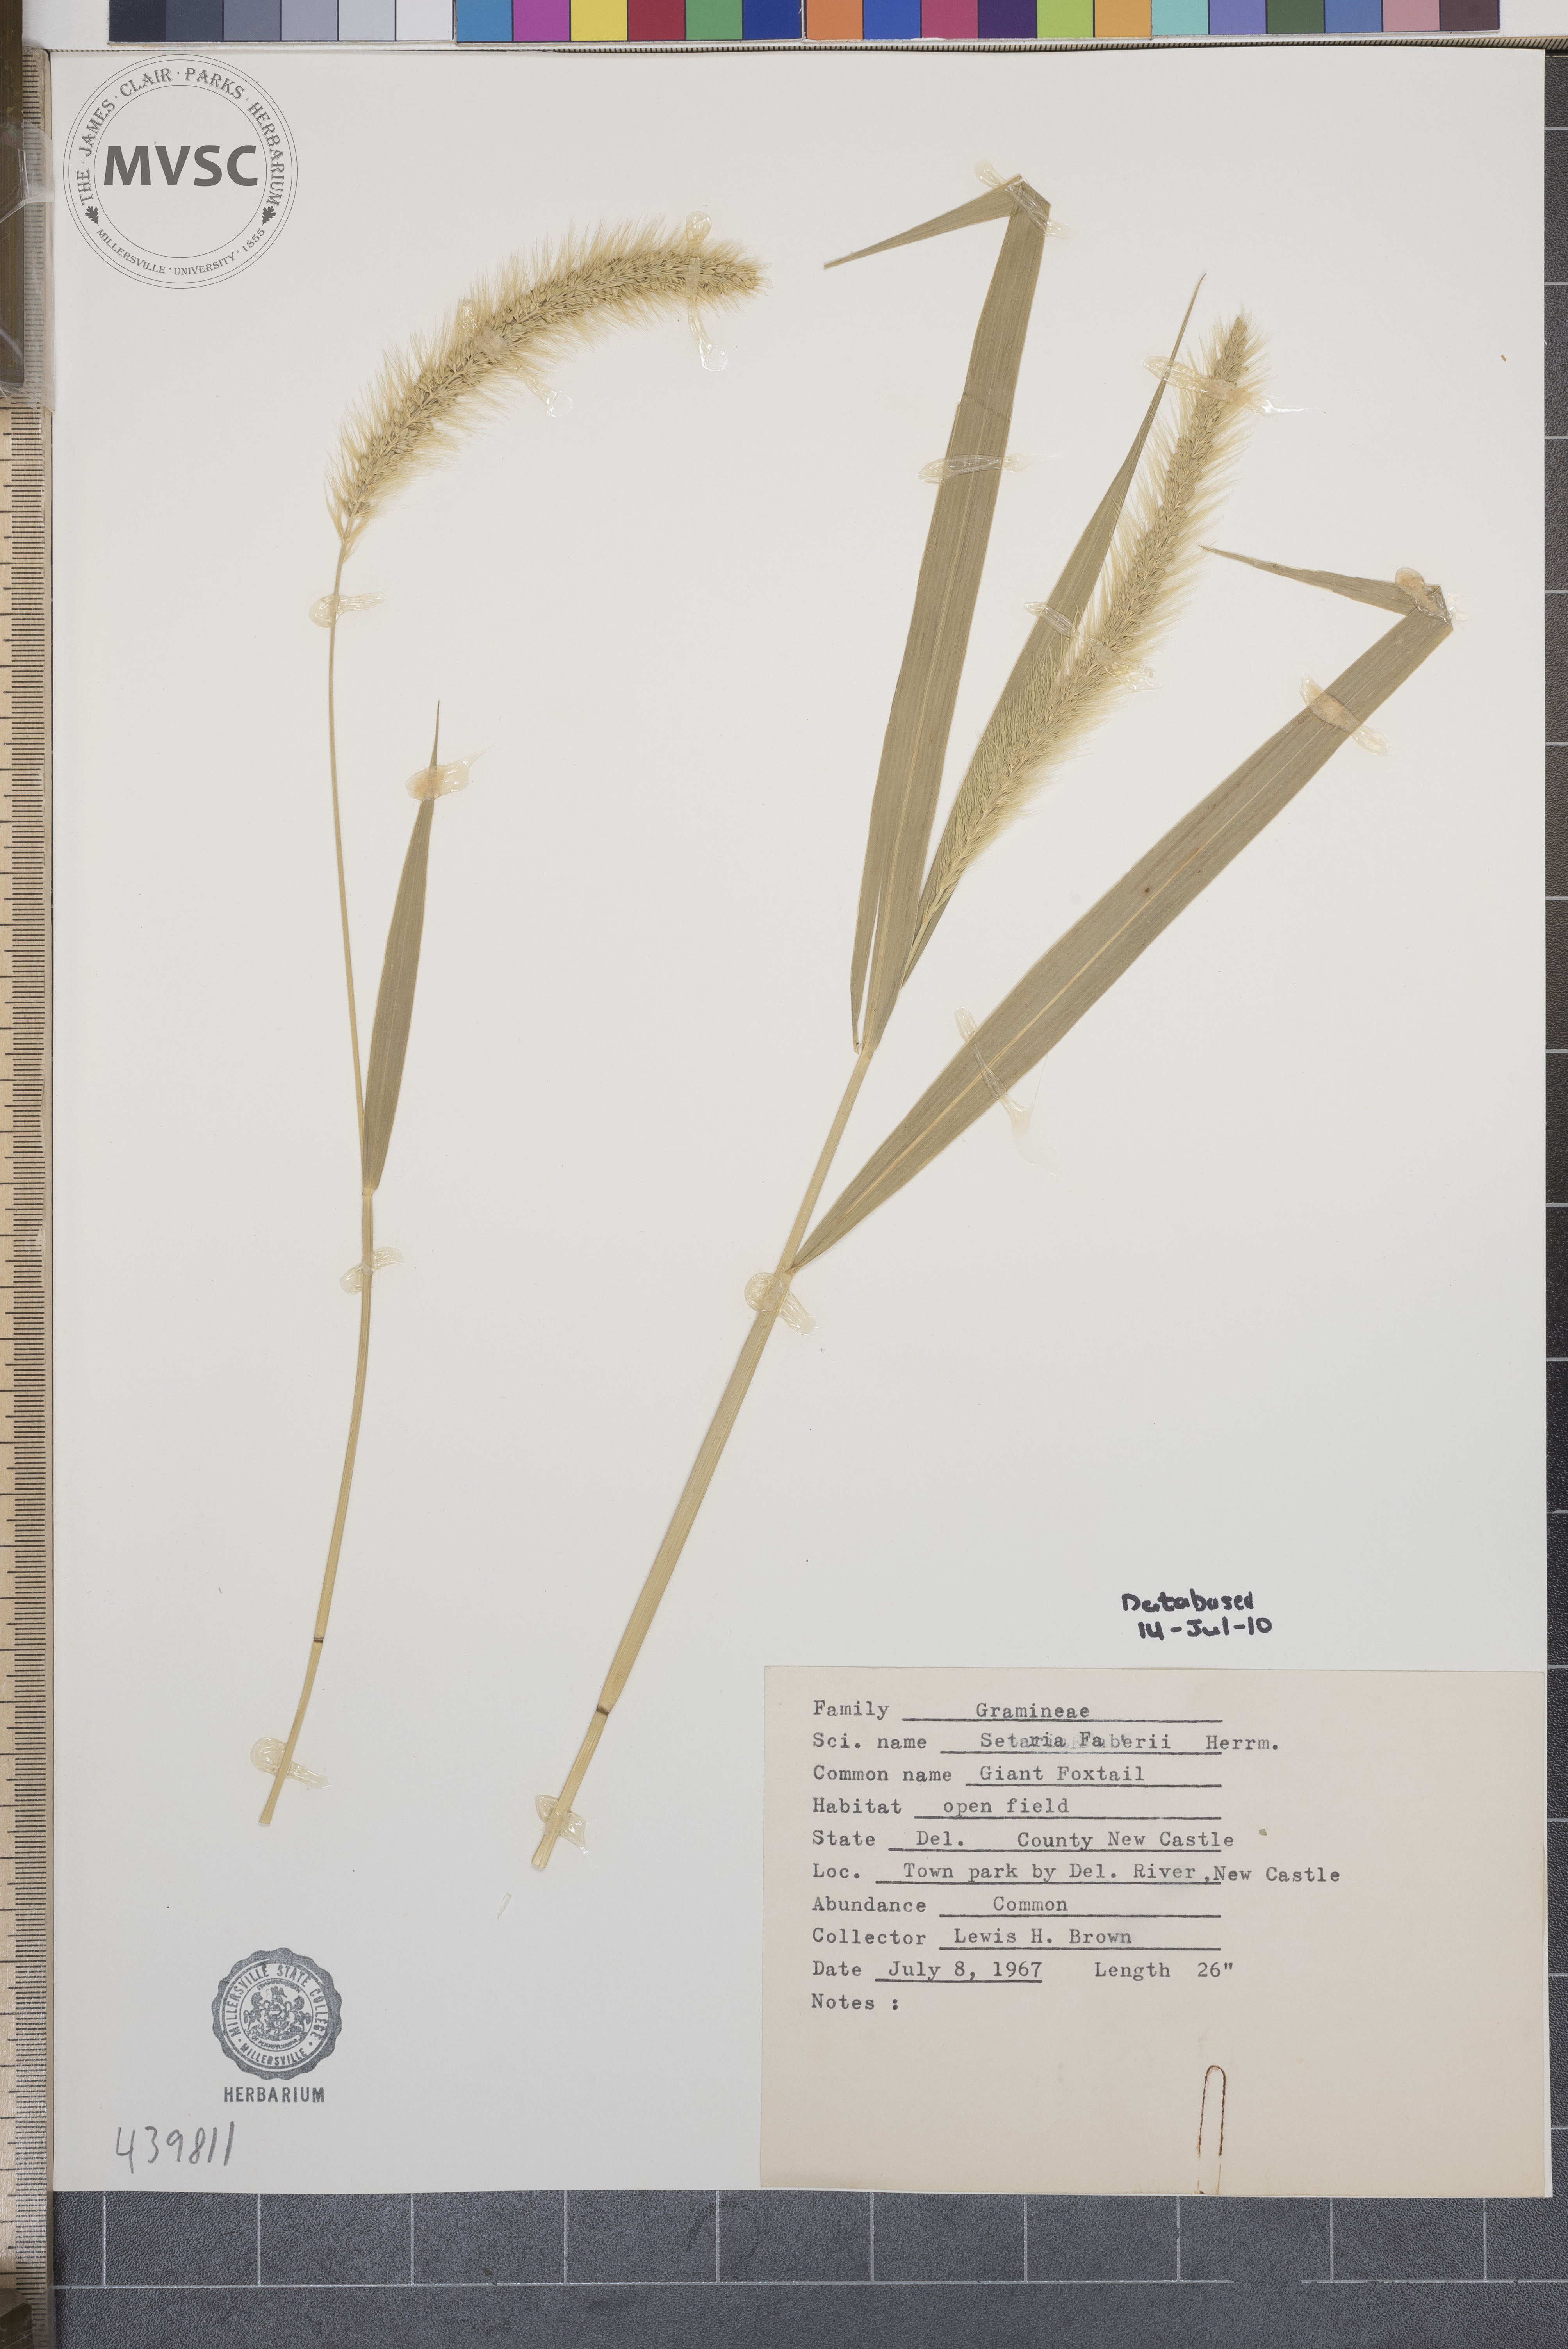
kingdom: Plantae
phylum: Tracheophyta
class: Liliopsida
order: Poales
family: Poaceae
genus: Setaria
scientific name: Setaria faberi
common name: Nodding bristle-grass
